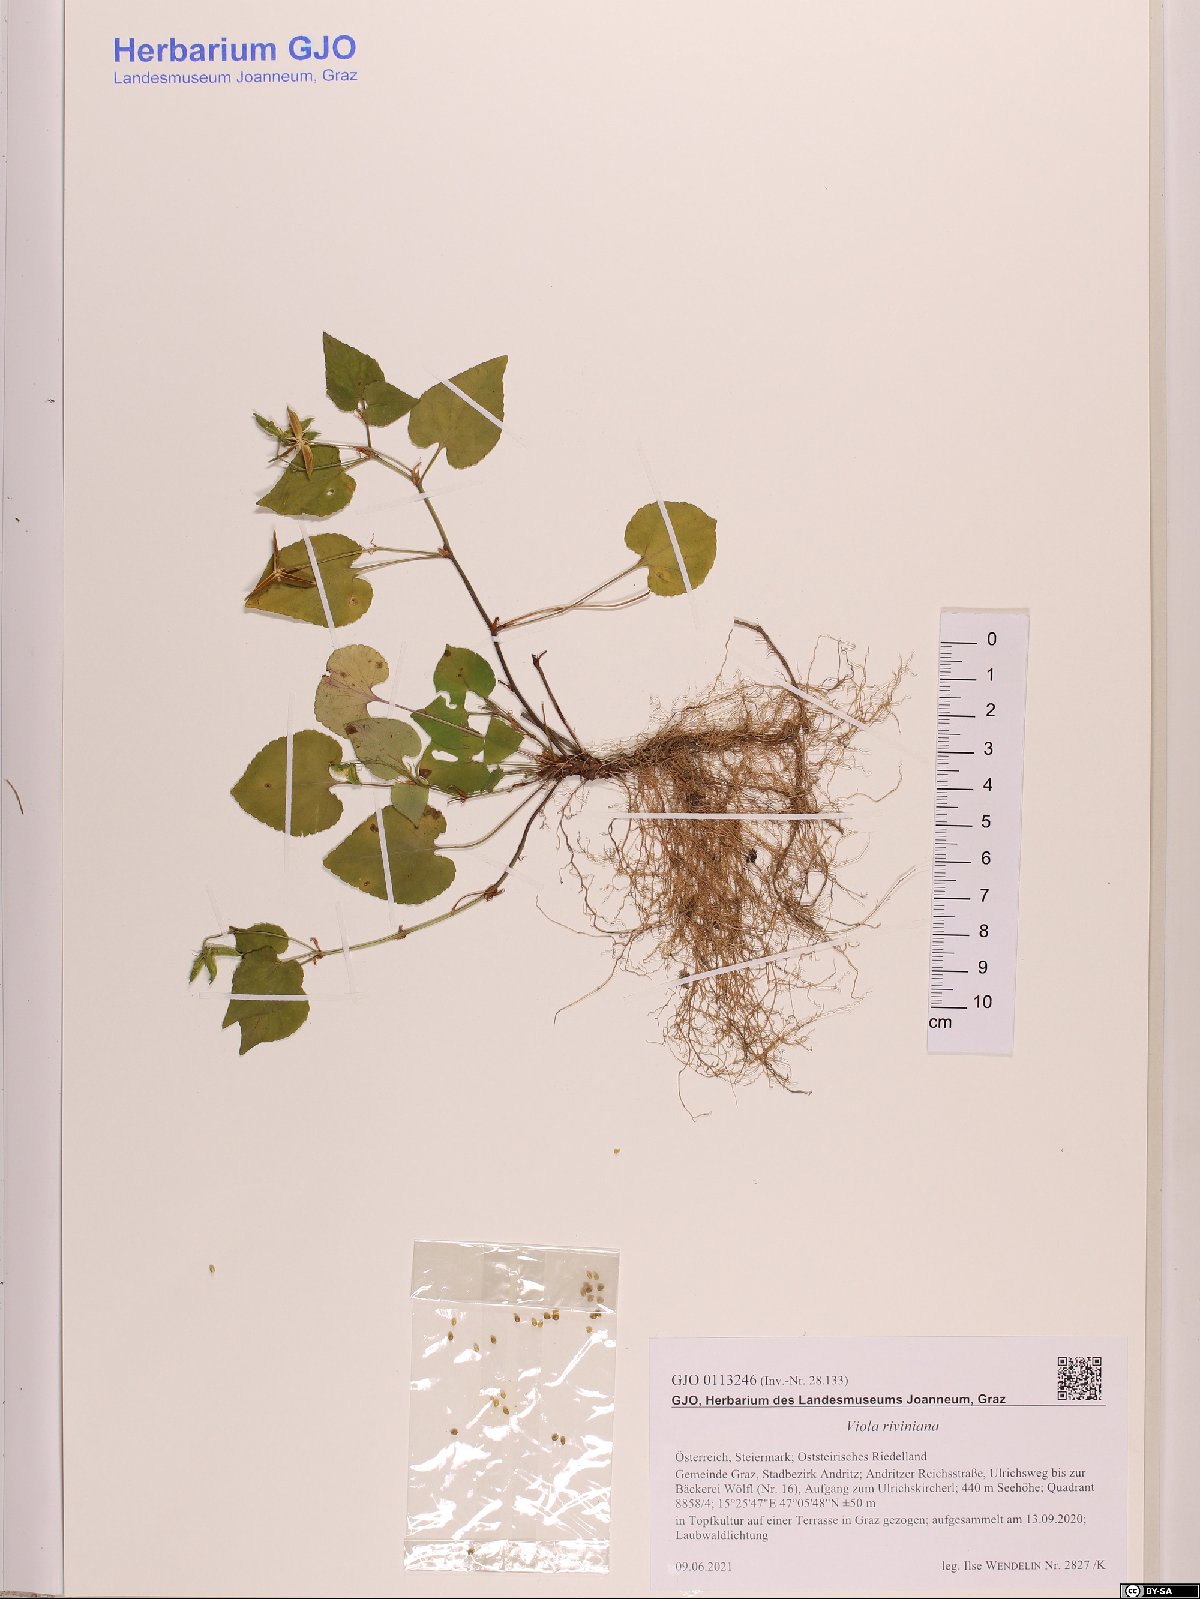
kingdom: Plantae
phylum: Tracheophyta
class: Magnoliopsida
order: Malpighiales
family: Violaceae
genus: Viola
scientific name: Viola riviniana
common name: Common dog-violet
